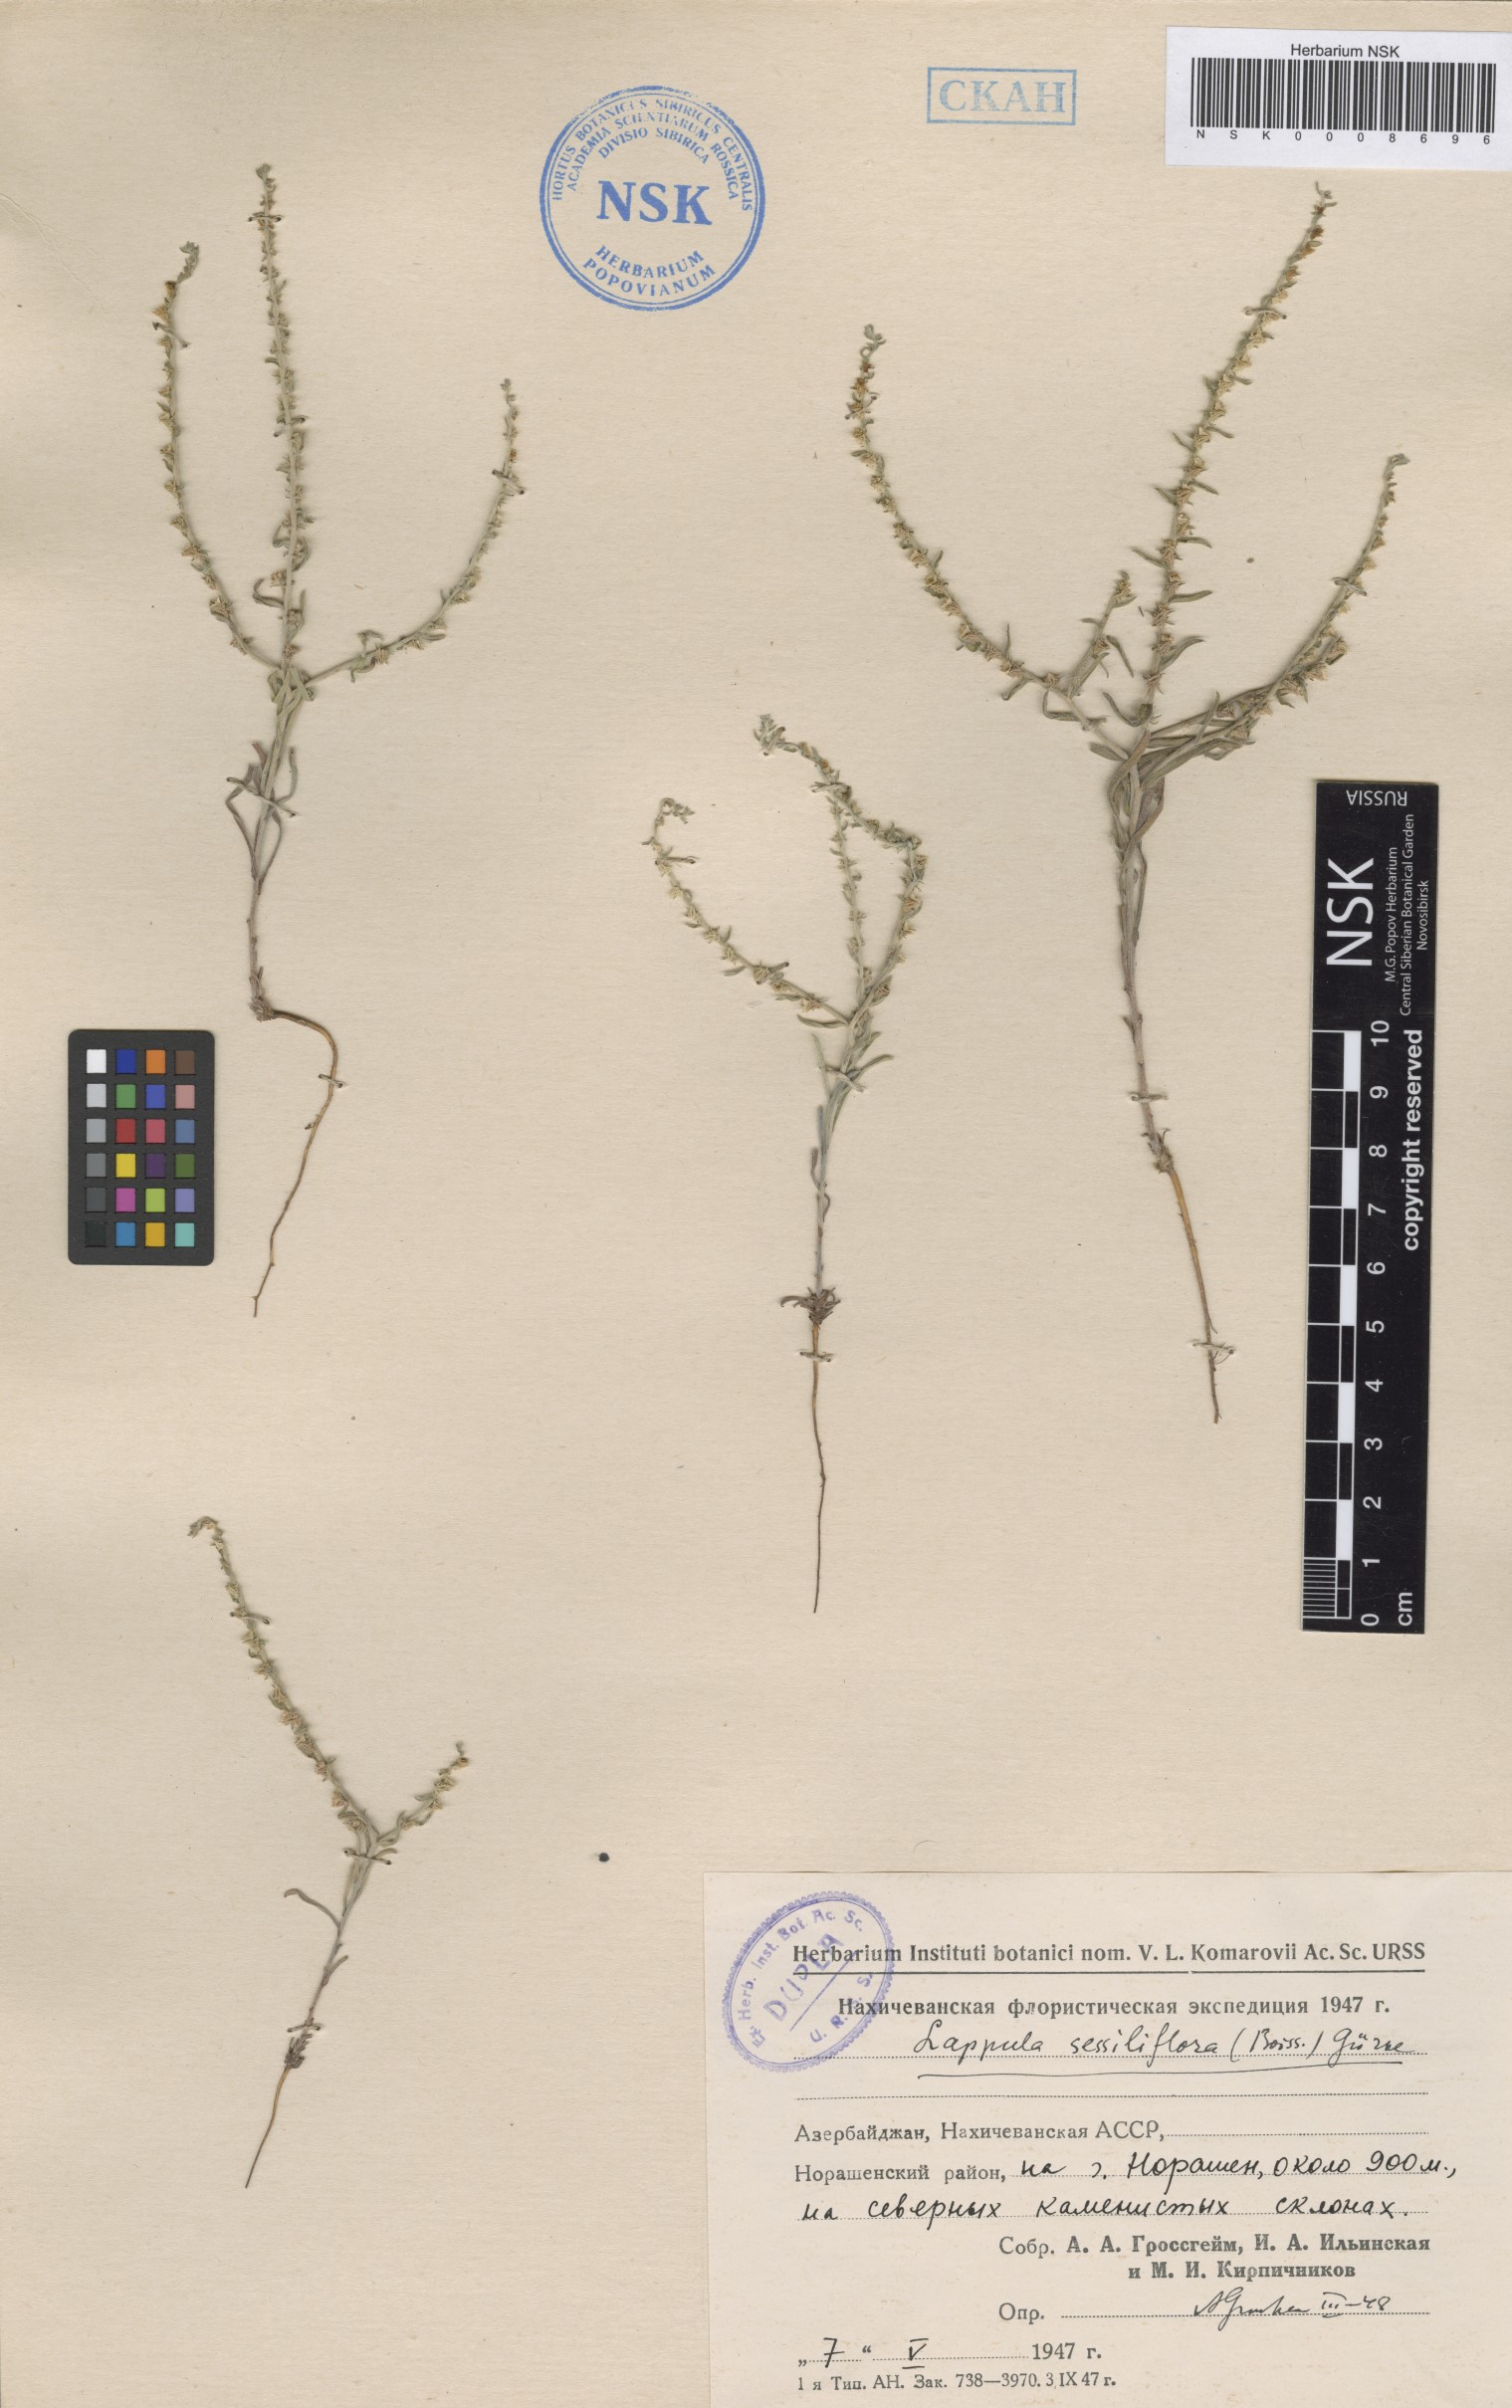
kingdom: Plantae
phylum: Tracheophyta
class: Magnoliopsida
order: Boraginales
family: Boraginaceae
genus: Rochelia
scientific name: Rochelia sessiliflora
